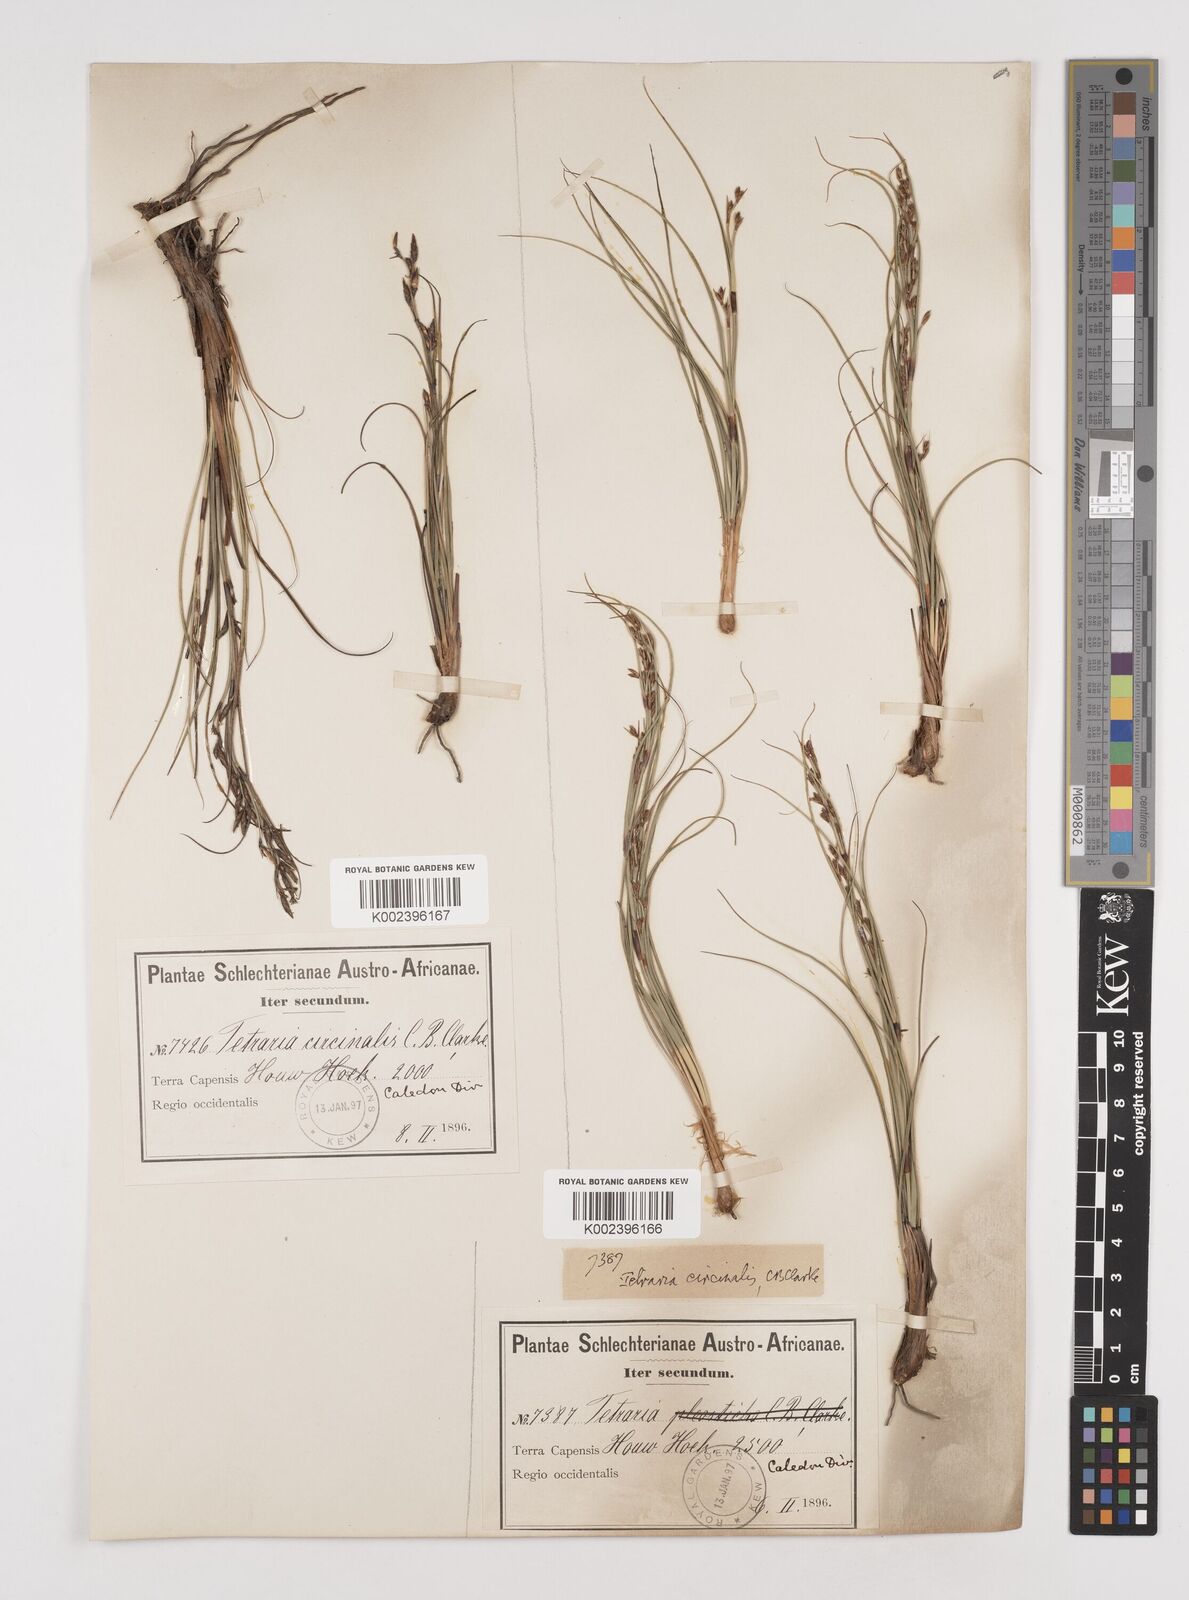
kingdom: Plantae
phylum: Tracheophyta
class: Liliopsida
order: Poales
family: Cyperaceae
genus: Tetraria
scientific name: Tetraria microstachys
